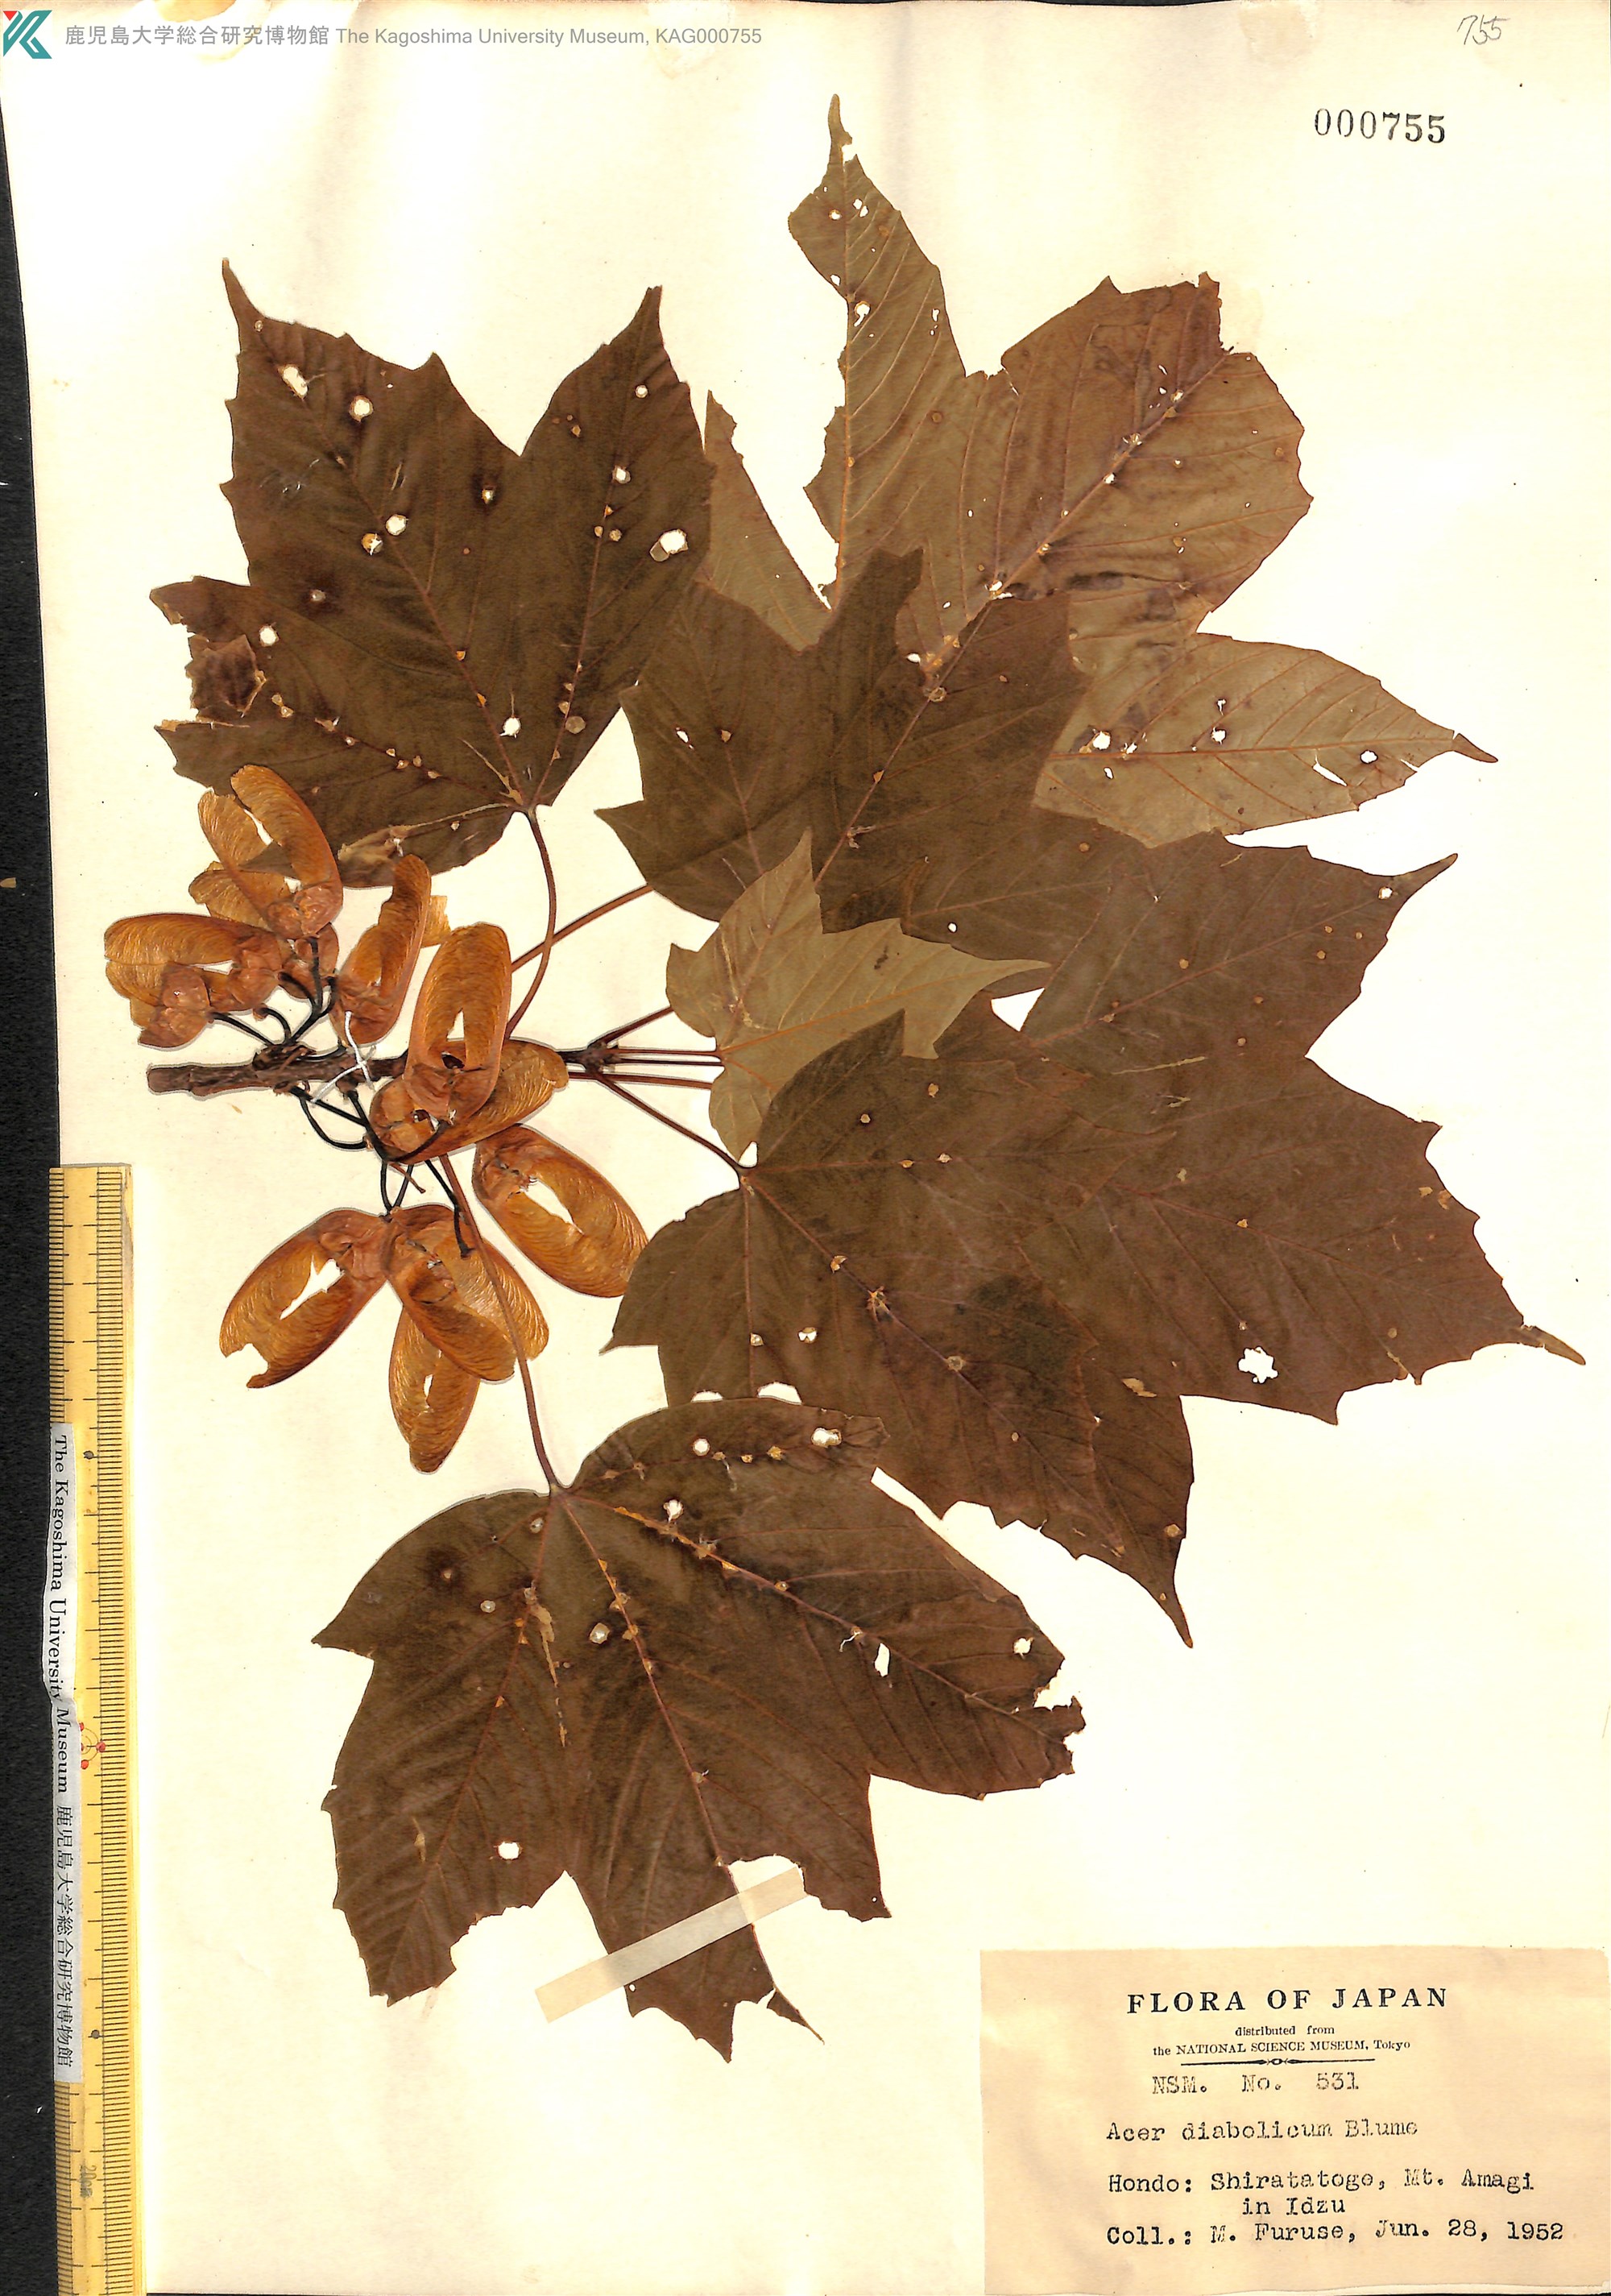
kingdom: Plantae
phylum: Tracheophyta
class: Magnoliopsida
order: Sapindales
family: Sapindaceae
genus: Acer
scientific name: Acer diabolicum
